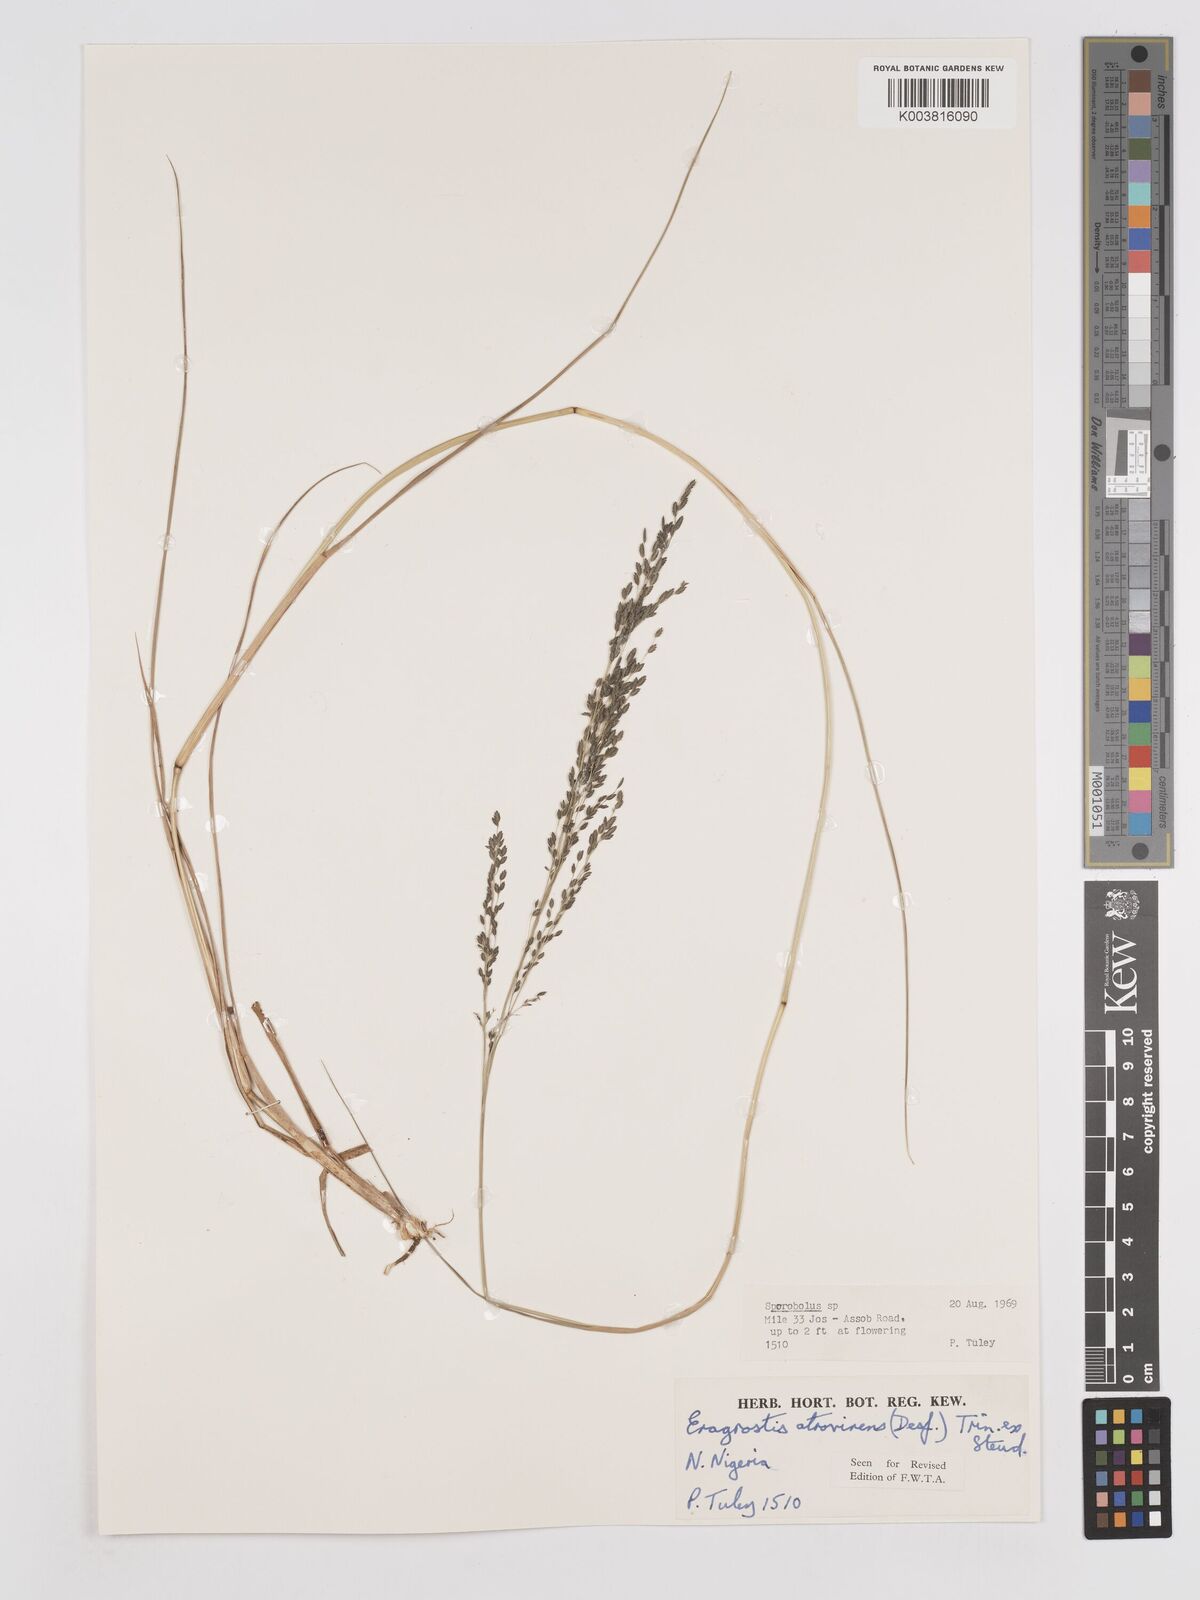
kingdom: Plantae
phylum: Tracheophyta
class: Liliopsida
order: Poales
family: Poaceae
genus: Eragrostis
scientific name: Eragrostis atrovirens
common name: Thalia lovegrass
